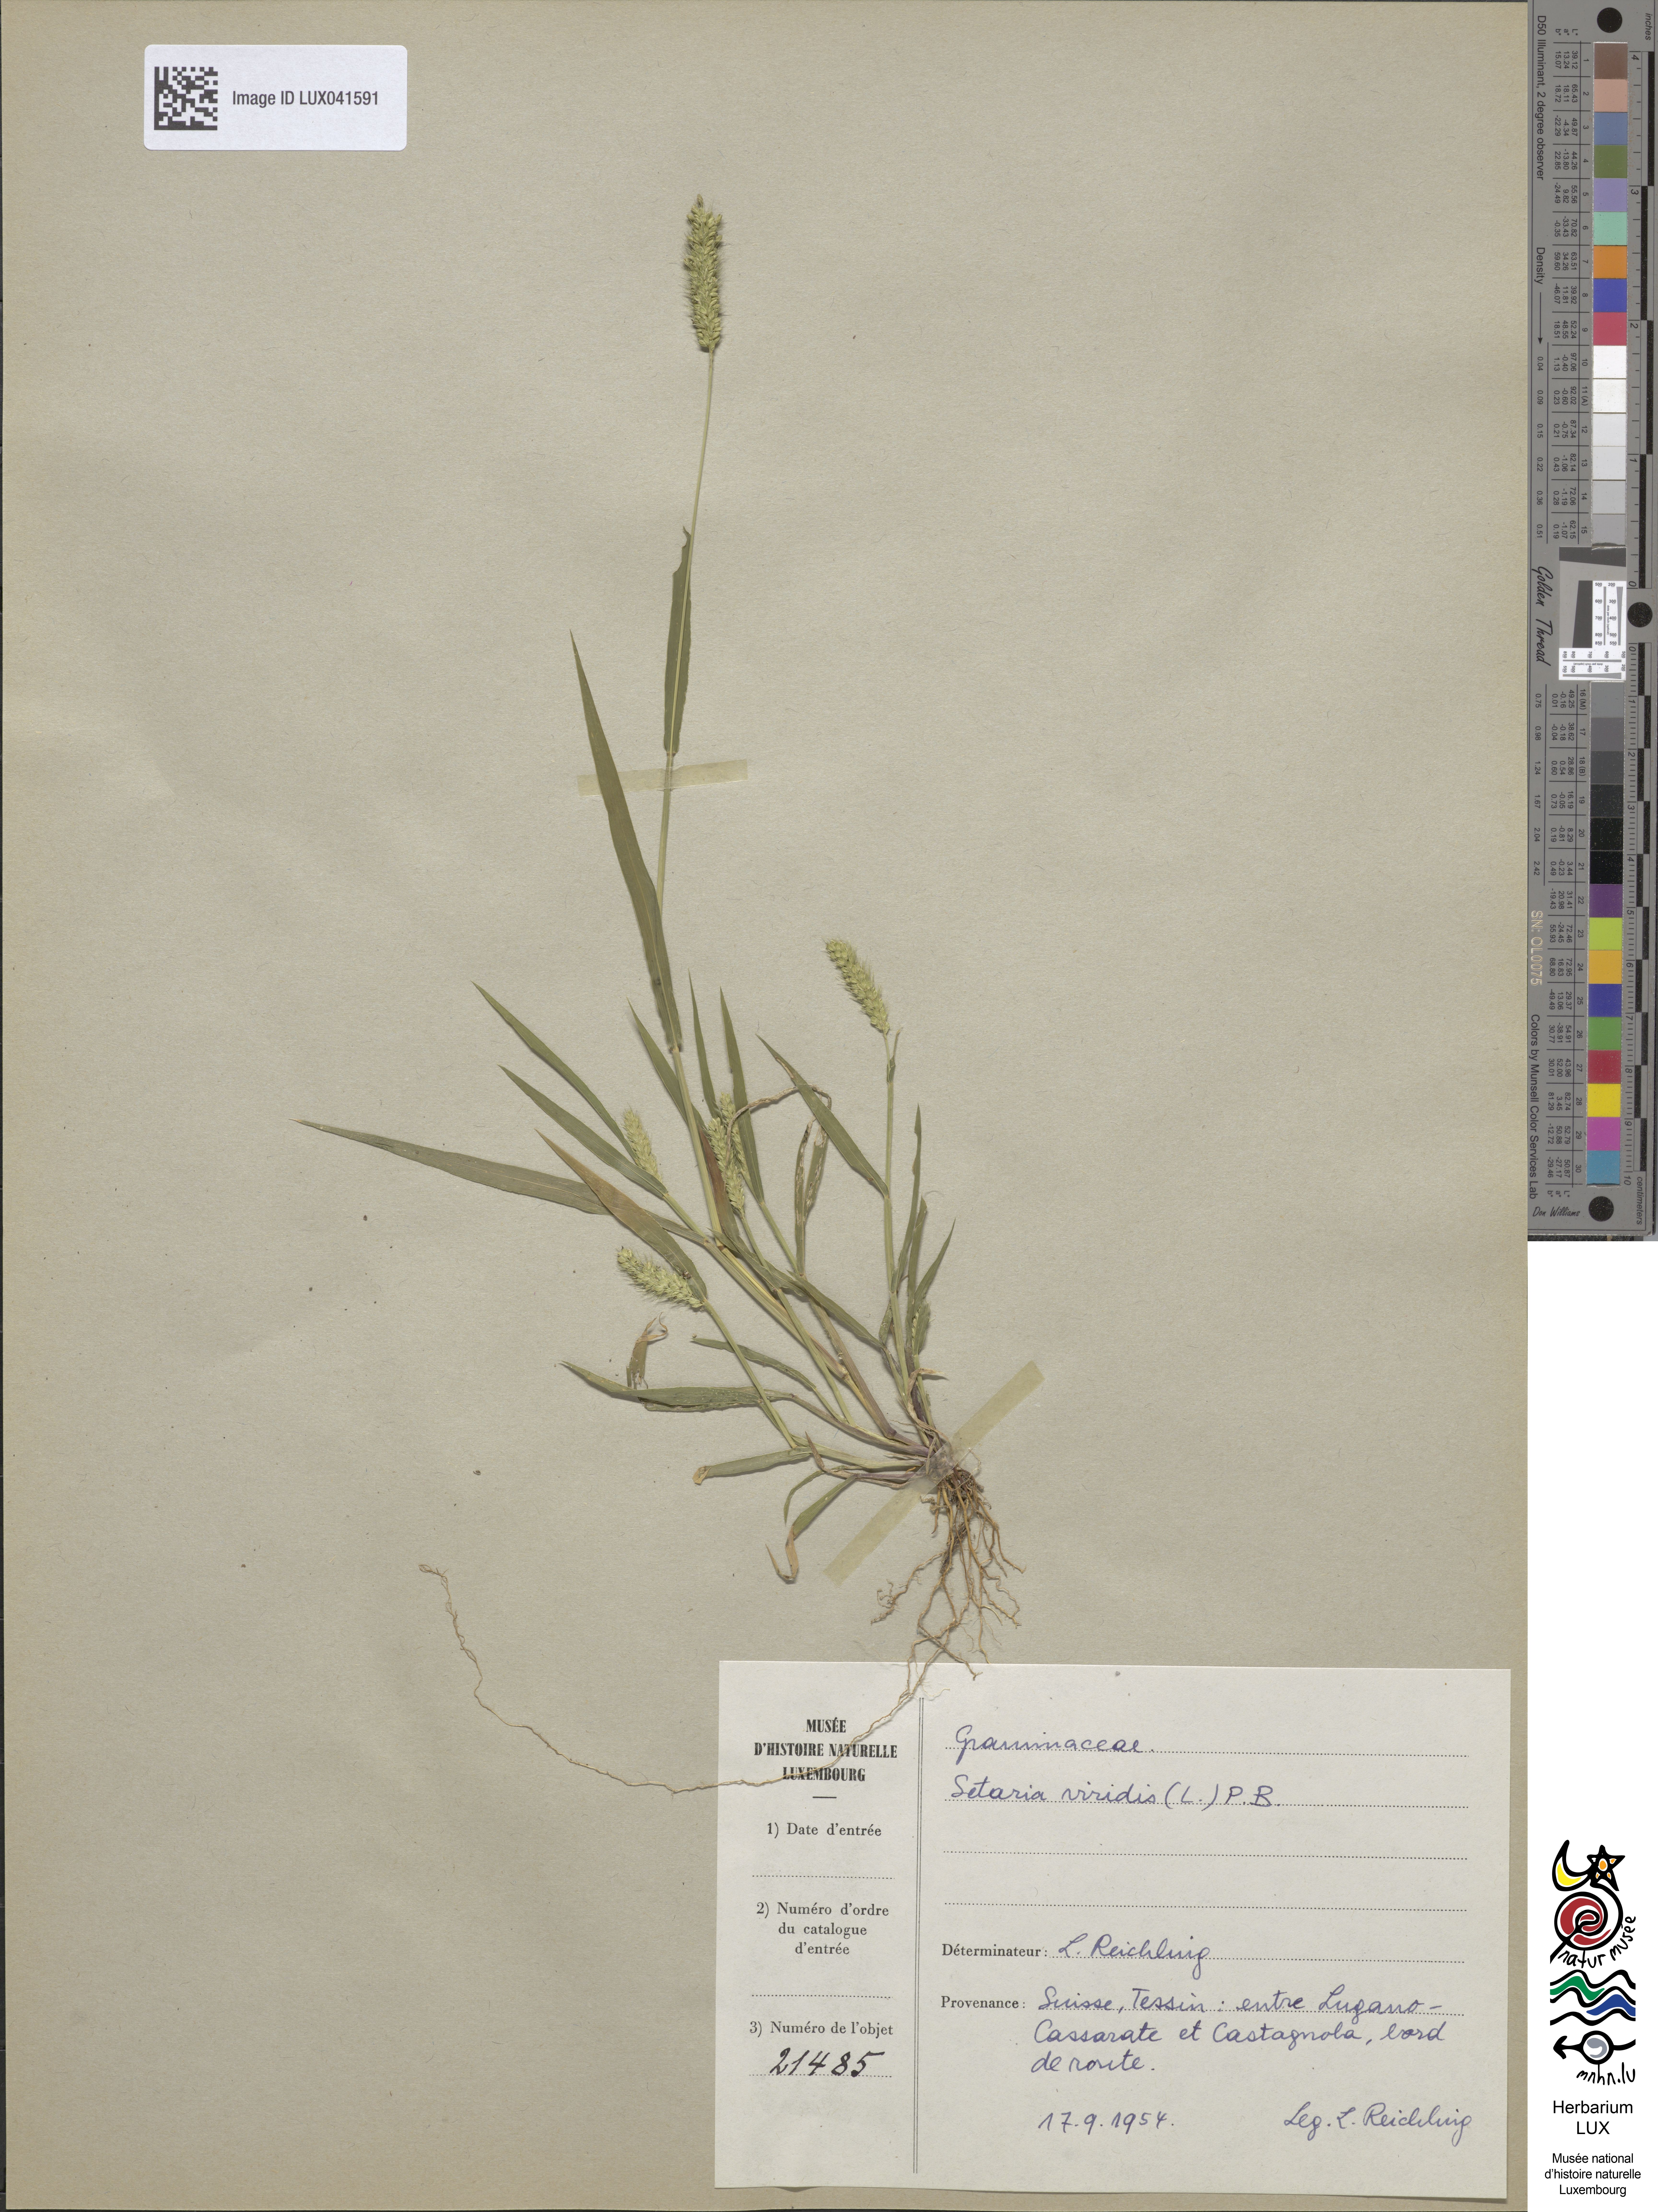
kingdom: Plantae
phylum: Tracheophyta
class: Liliopsida
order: Poales
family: Poaceae
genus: Setaria
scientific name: Setaria viridis
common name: Green bristlegrass
